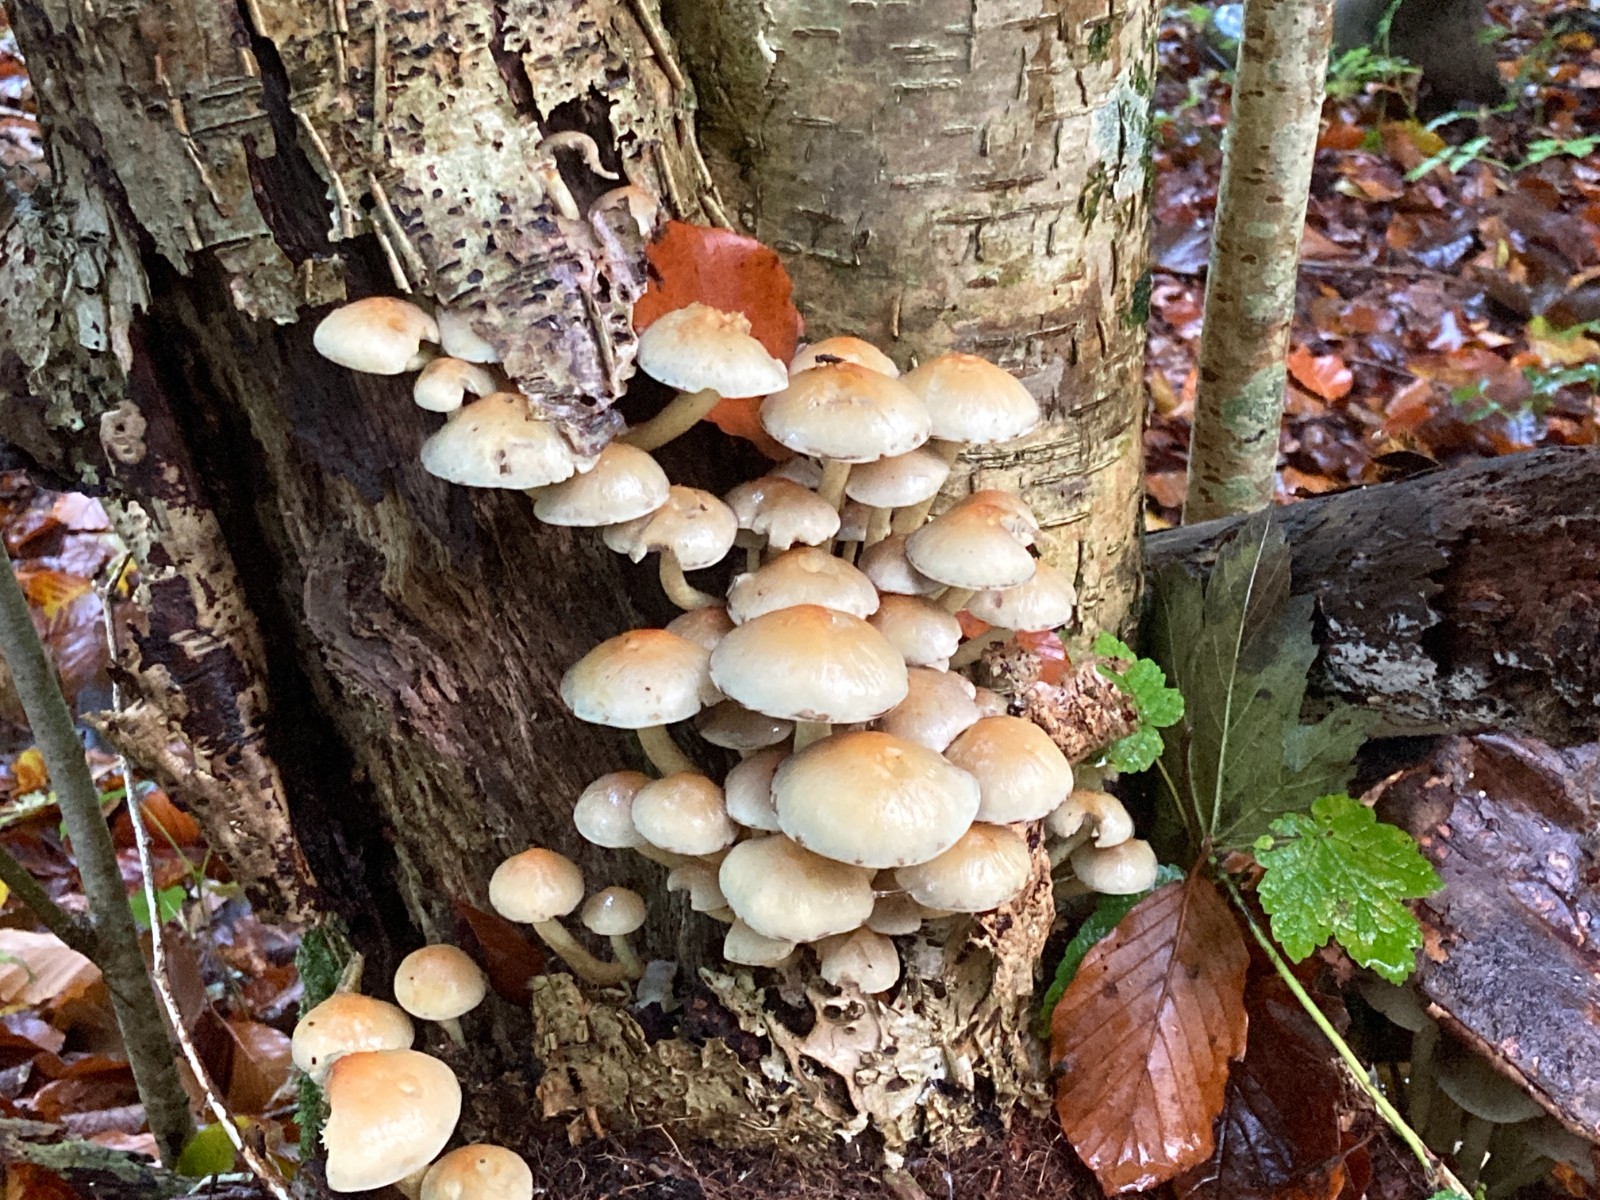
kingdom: Fungi
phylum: Basidiomycota
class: Agaricomycetes
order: Agaricales
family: Strophariaceae
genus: Hypholoma
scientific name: Hypholoma fasciculare
